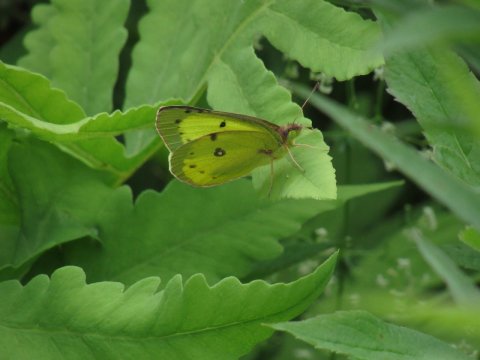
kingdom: Animalia
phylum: Arthropoda
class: Insecta
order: Lepidoptera
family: Pieridae
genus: Colias
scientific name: Colias philodice
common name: Clouded Sulphur
